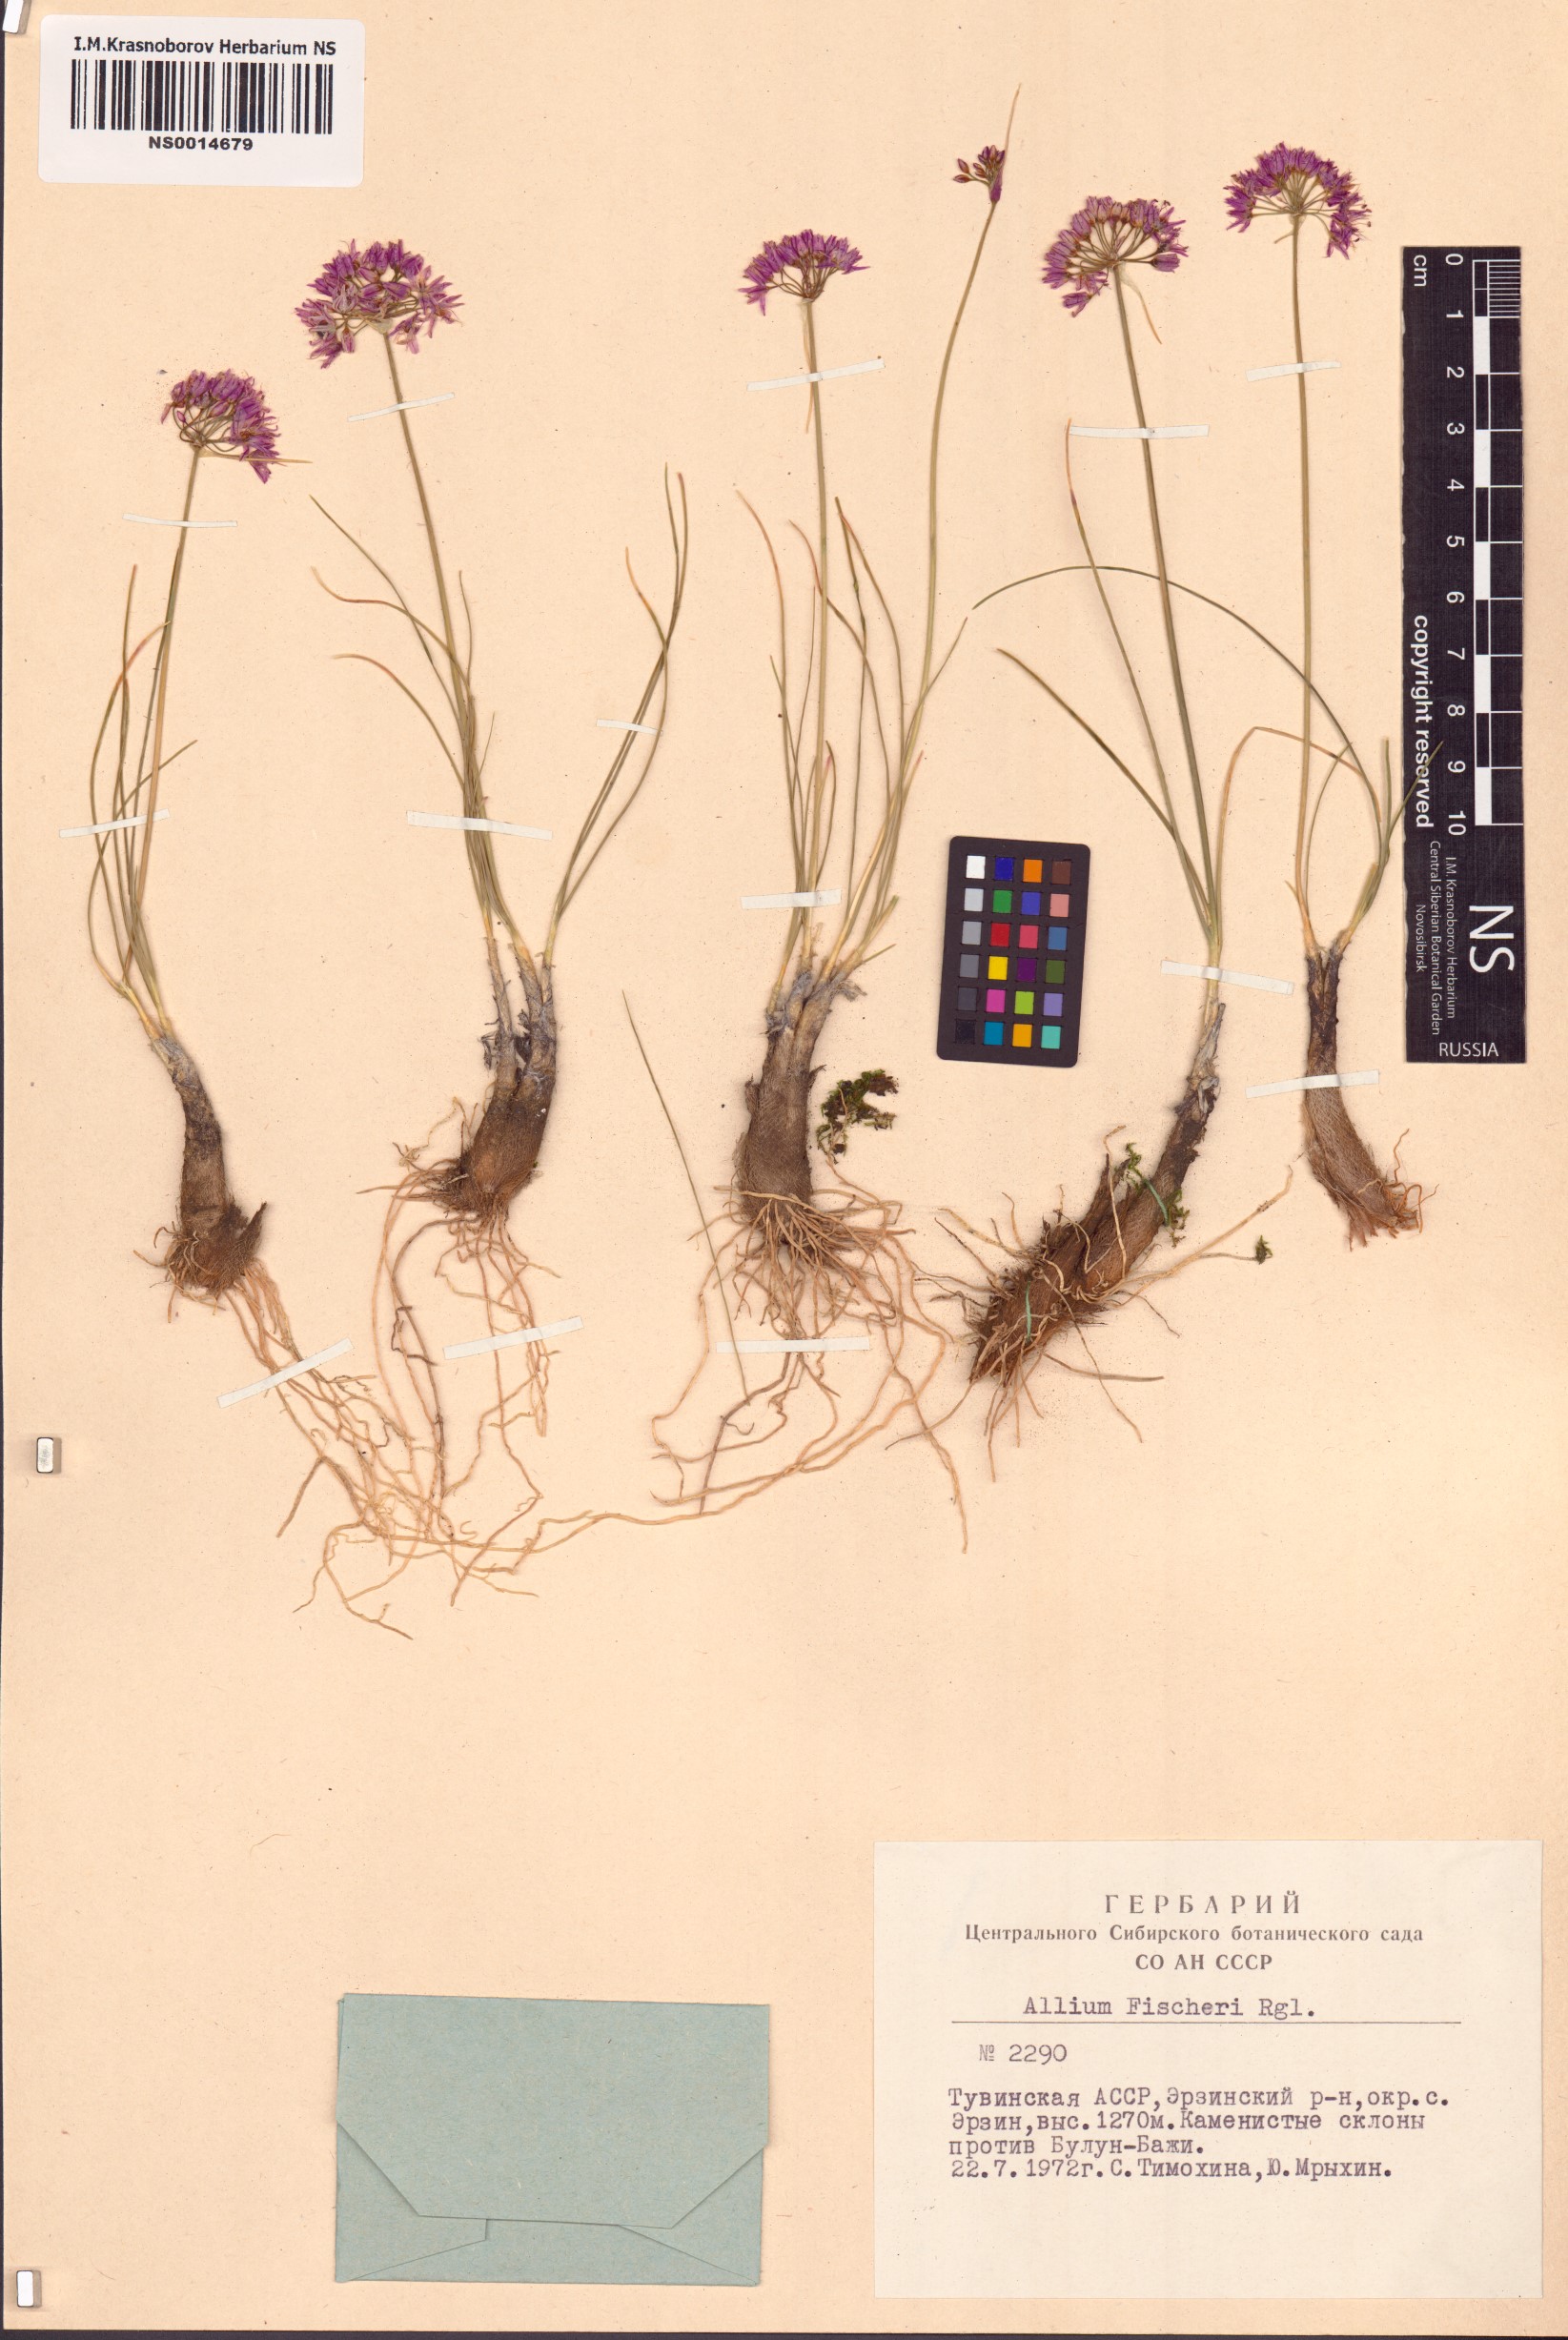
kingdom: Plantae
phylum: Tracheophyta
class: Liliopsida
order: Asparagales
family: Amaryllidaceae
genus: Allium
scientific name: Allium eduardi
